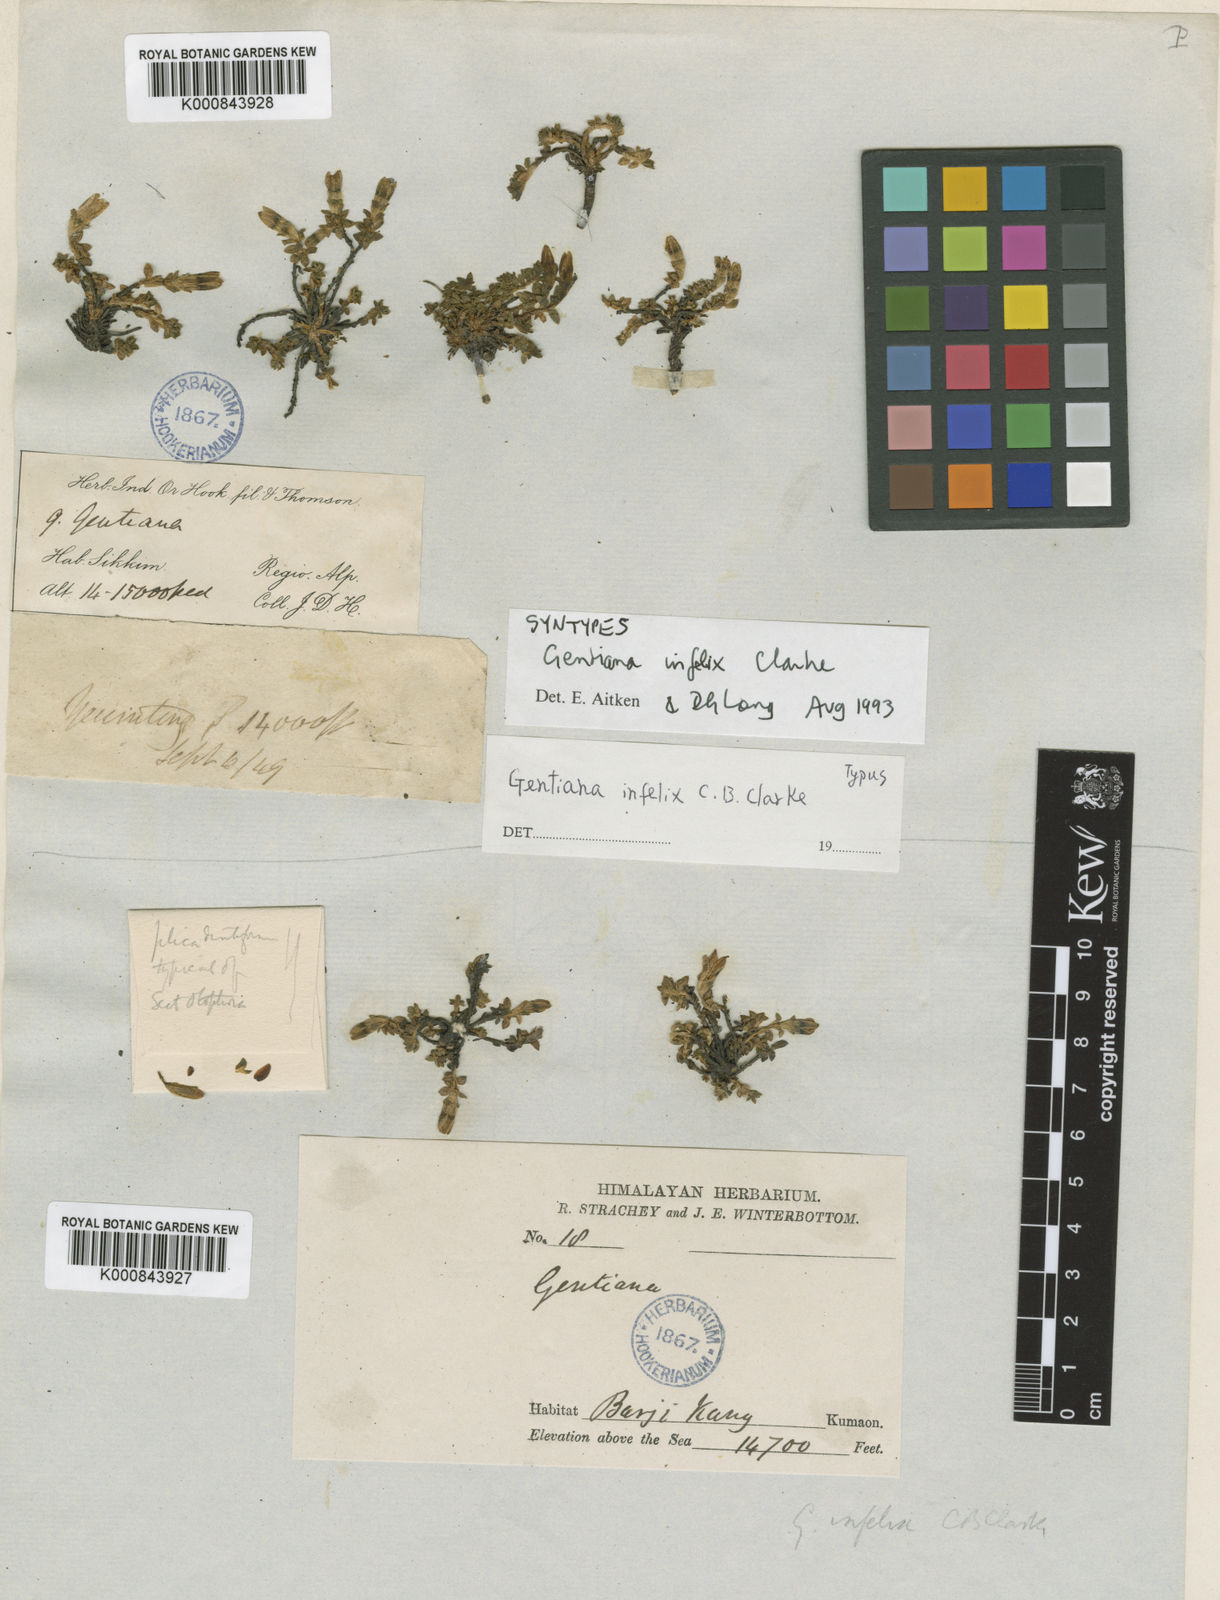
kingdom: Plantae
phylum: Tracheophyta
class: Magnoliopsida
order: Gentianales
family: Gentianaceae
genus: Kuepferia
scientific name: Kuepferia infelix
